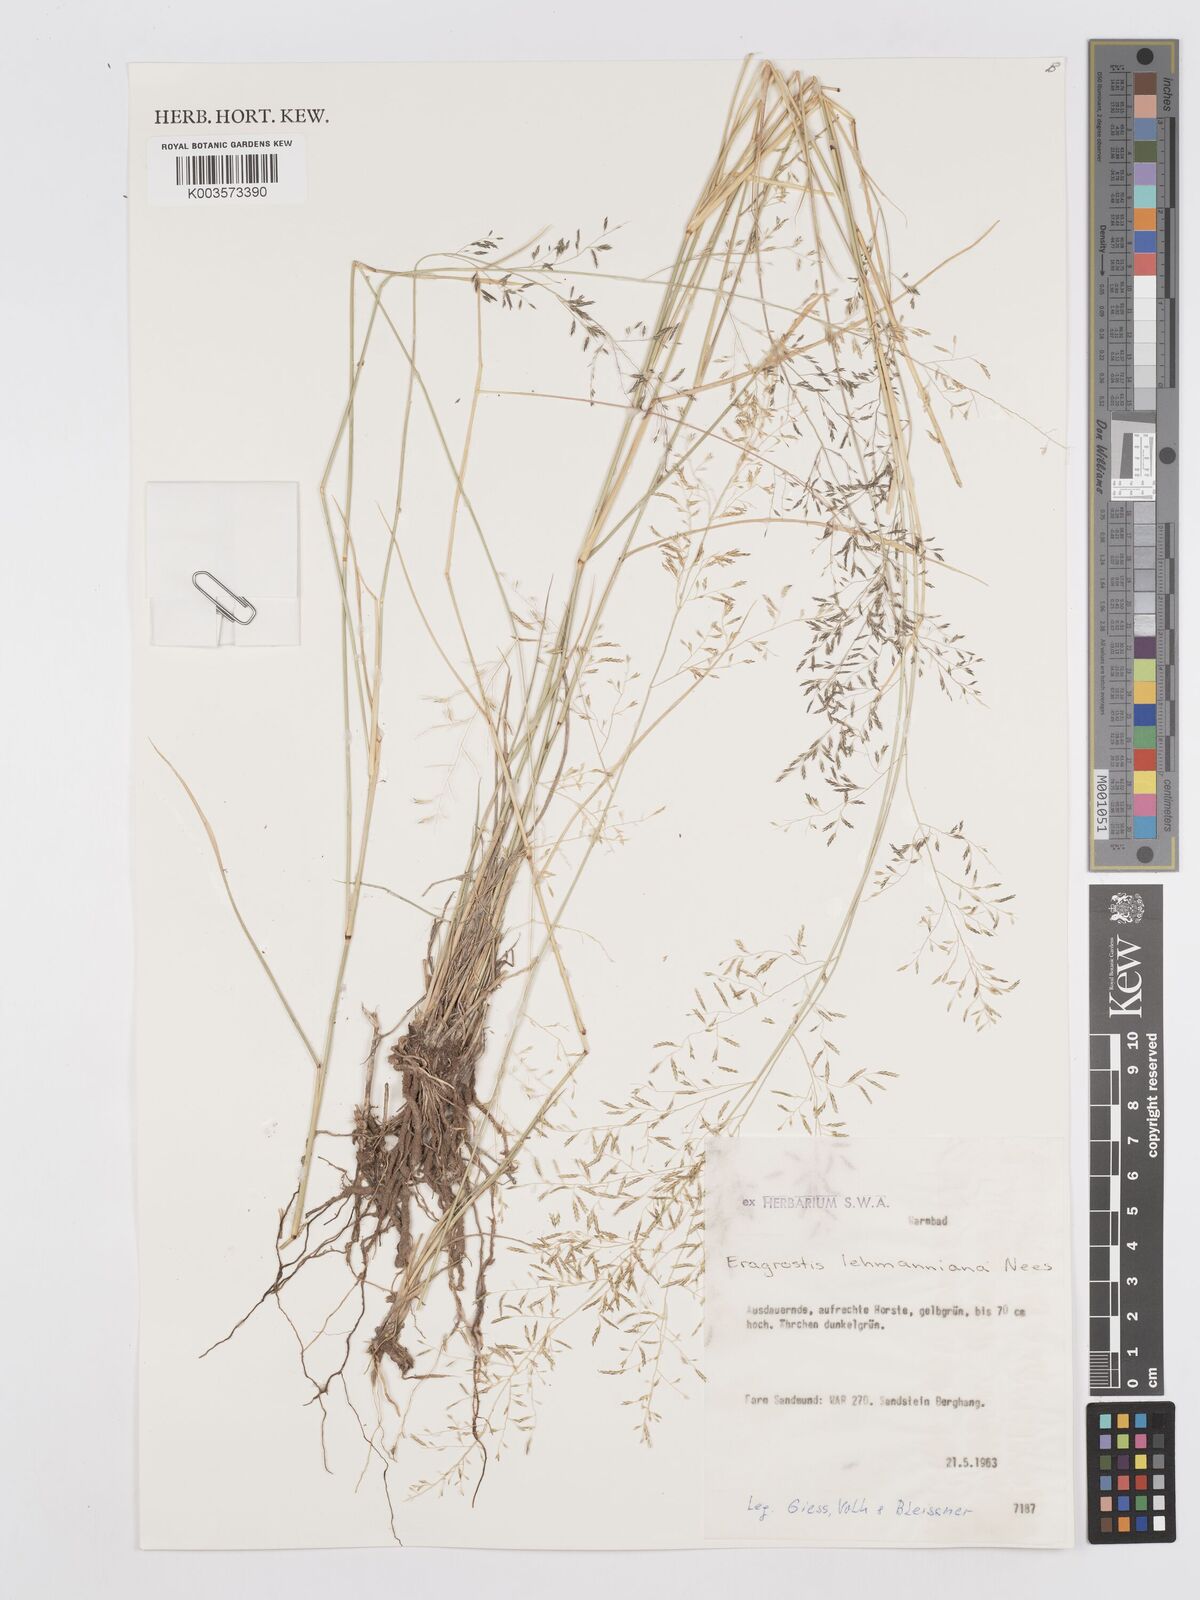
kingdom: Plantae
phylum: Tracheophyta
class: Liliopsida
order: Poales
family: Poaceae
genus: Eragrostis
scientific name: Eragrostis lehmanniana
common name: Lehmann lovegrass
